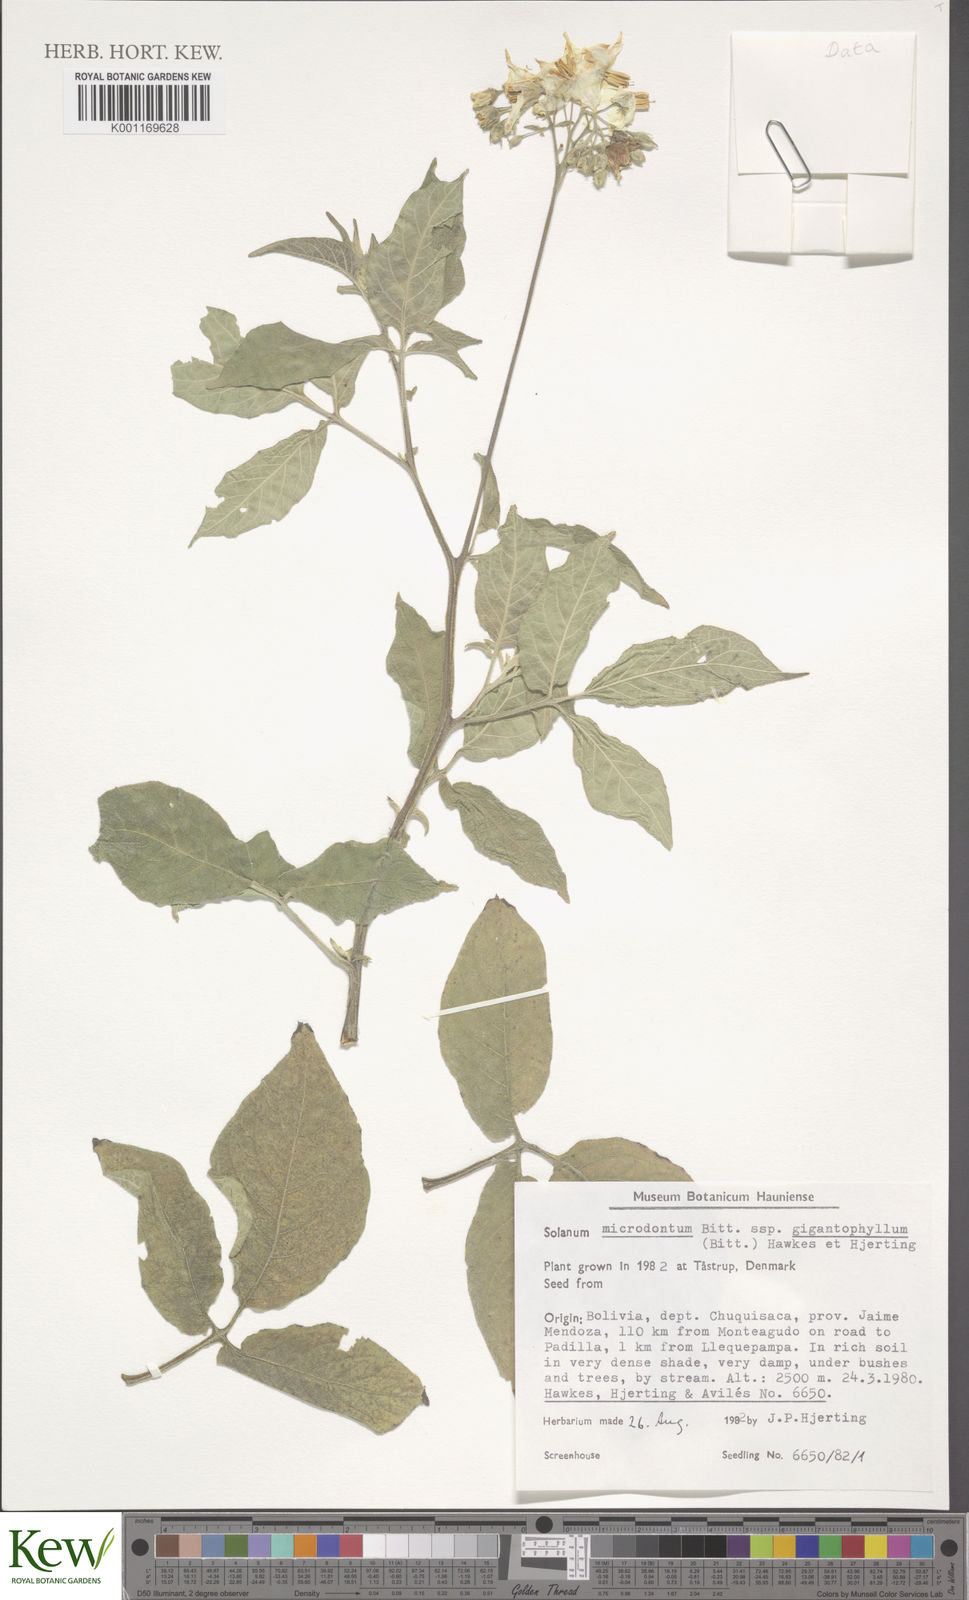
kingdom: Plantae
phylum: Tracheophyta
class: Magnoliopsida
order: Solanales
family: Solanaceae
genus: Solanum
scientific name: Solanum microdontum
